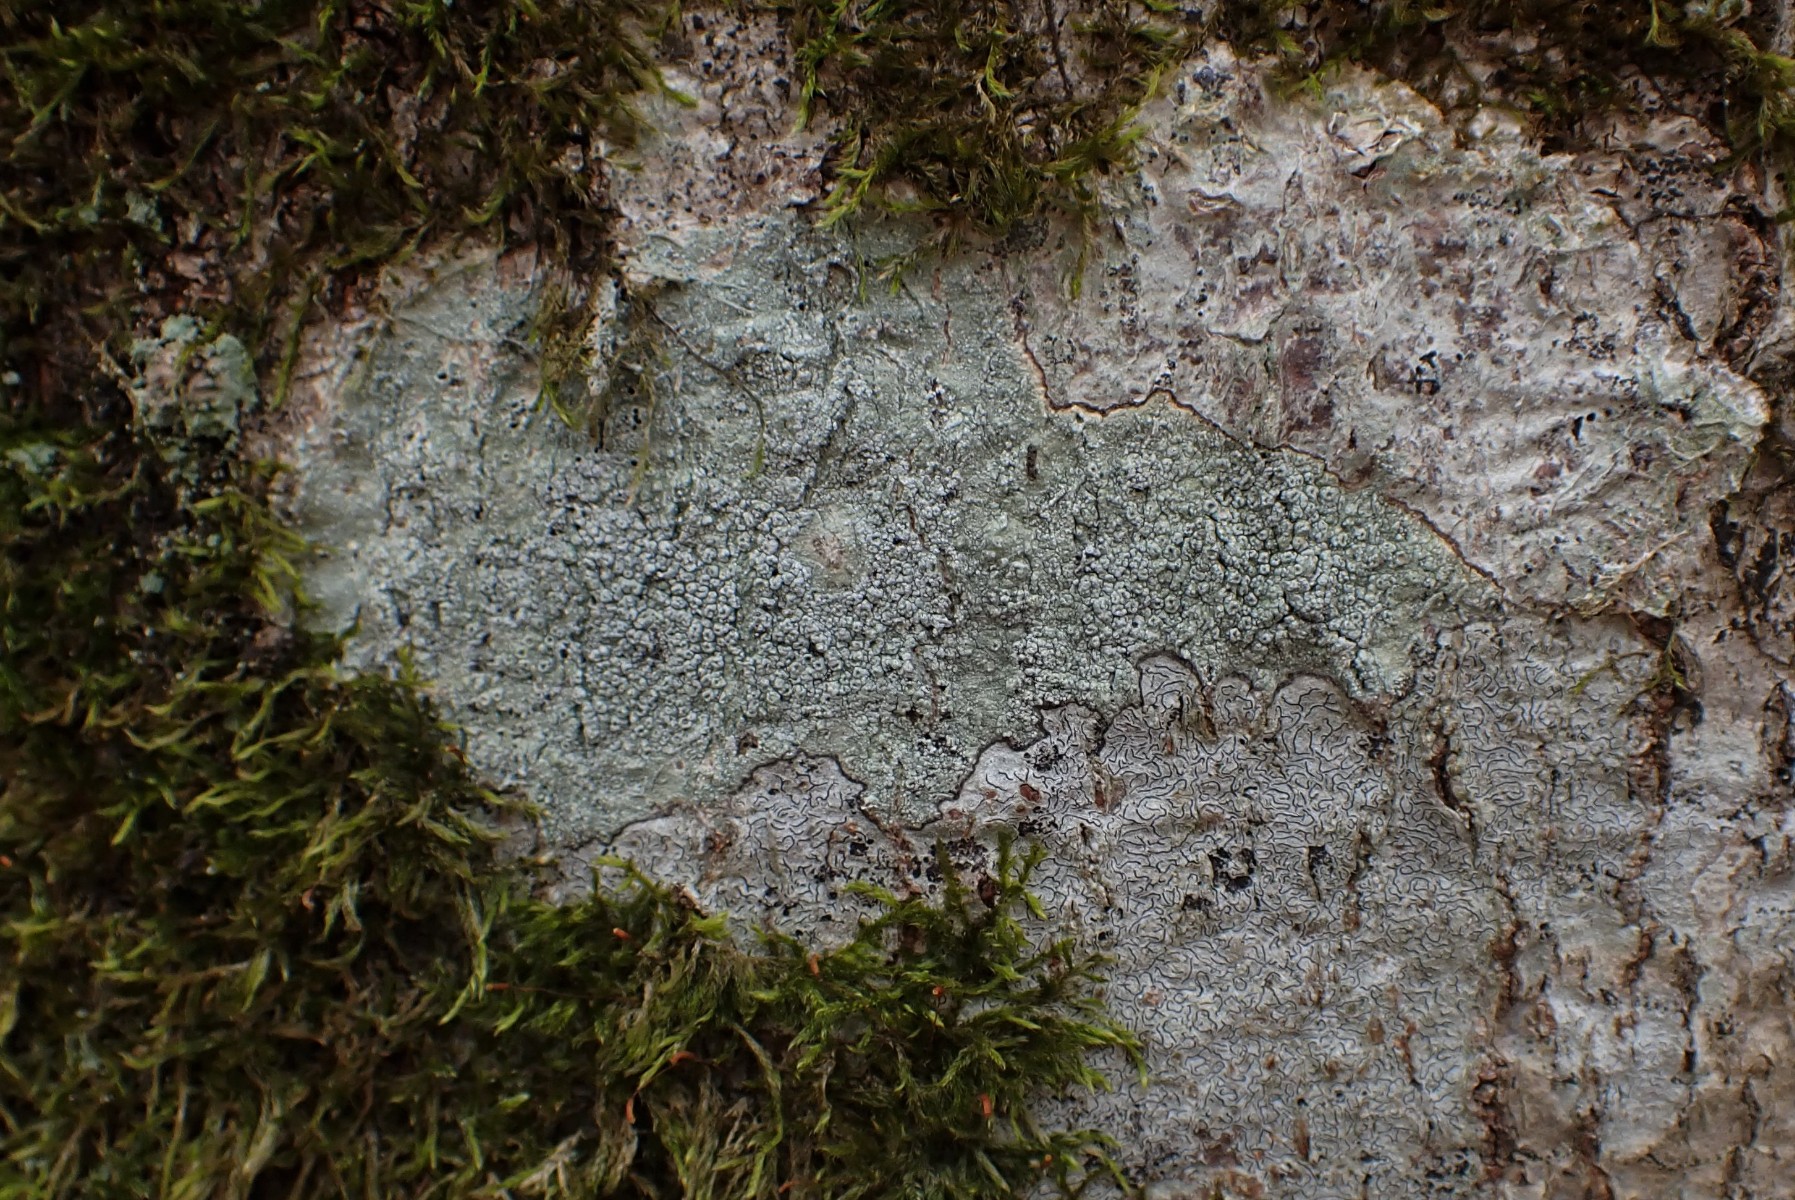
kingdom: Fungi
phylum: Ascomycota
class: Lecanoromycetes
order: Pertusariales
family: Pertusariaceae
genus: Pertusaria
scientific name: Pertusaria hymenea
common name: åben prikvortelav
